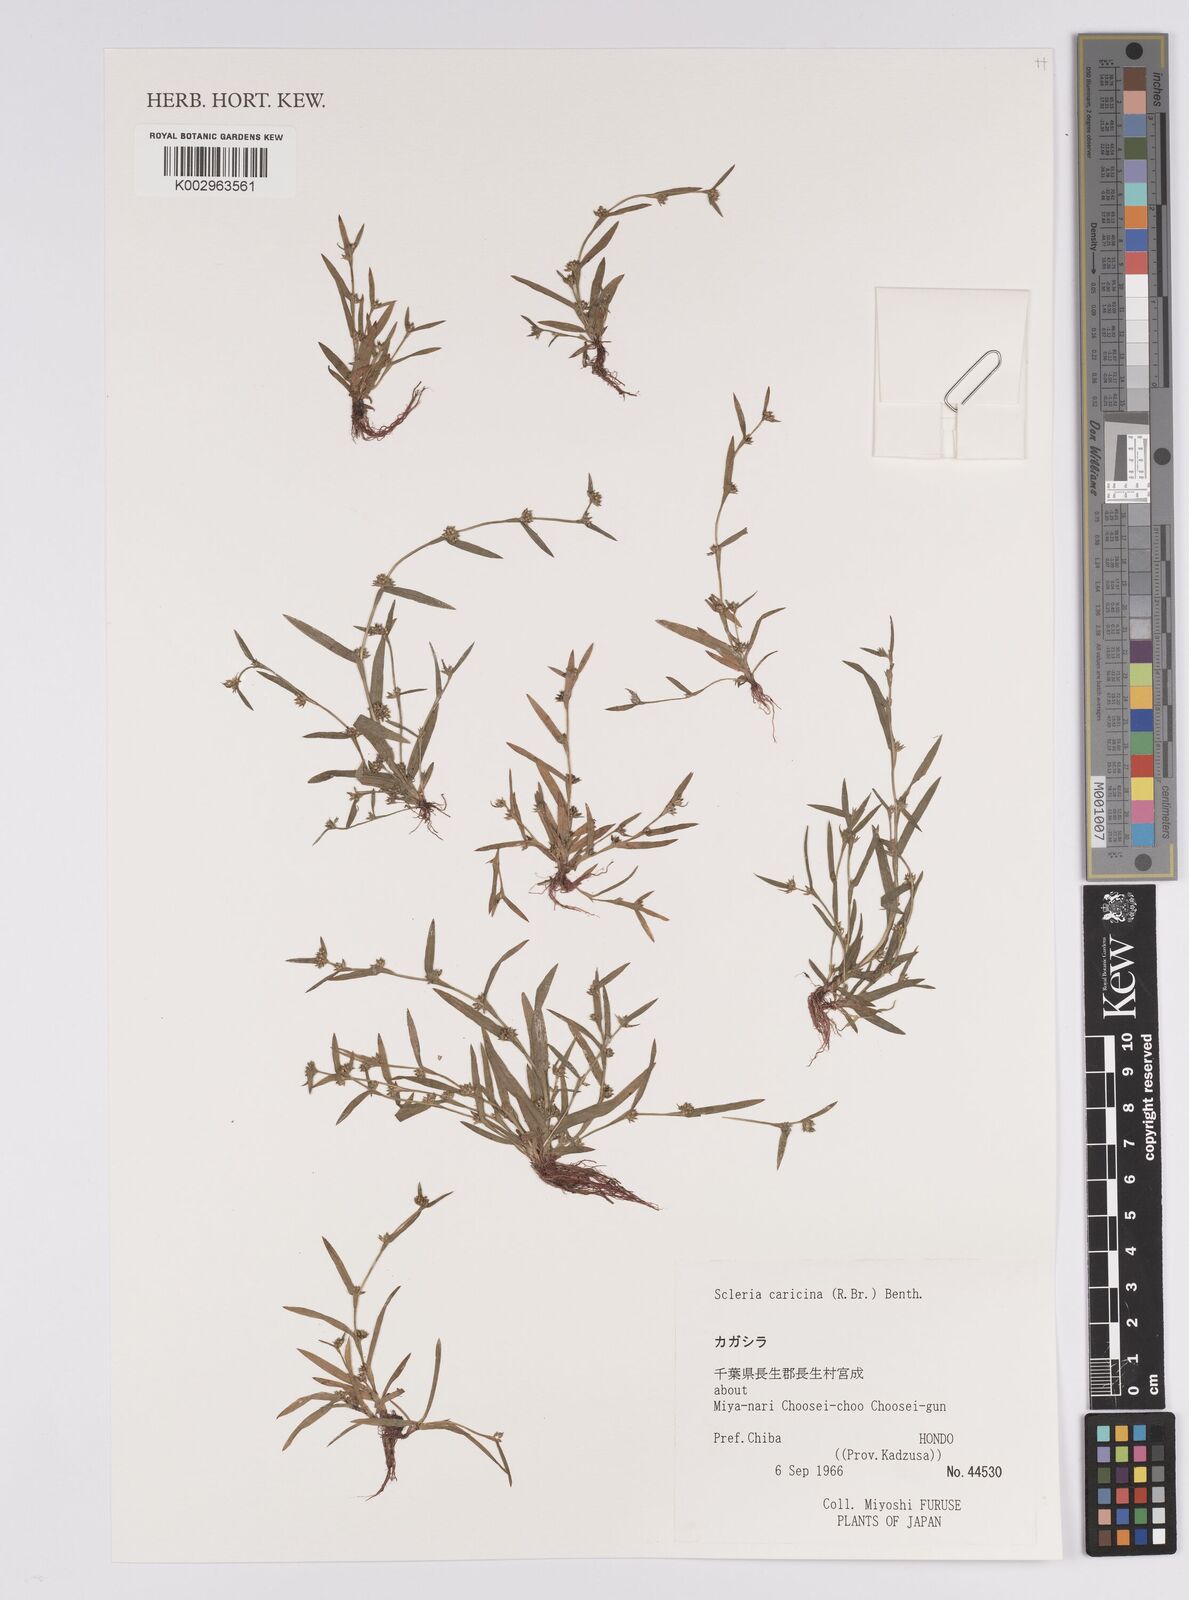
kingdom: Plantae
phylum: Tracheophyta
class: Liliopsida
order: Poales
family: Cyperaceae
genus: Diplacrum
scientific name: Diplacrum caricinum
